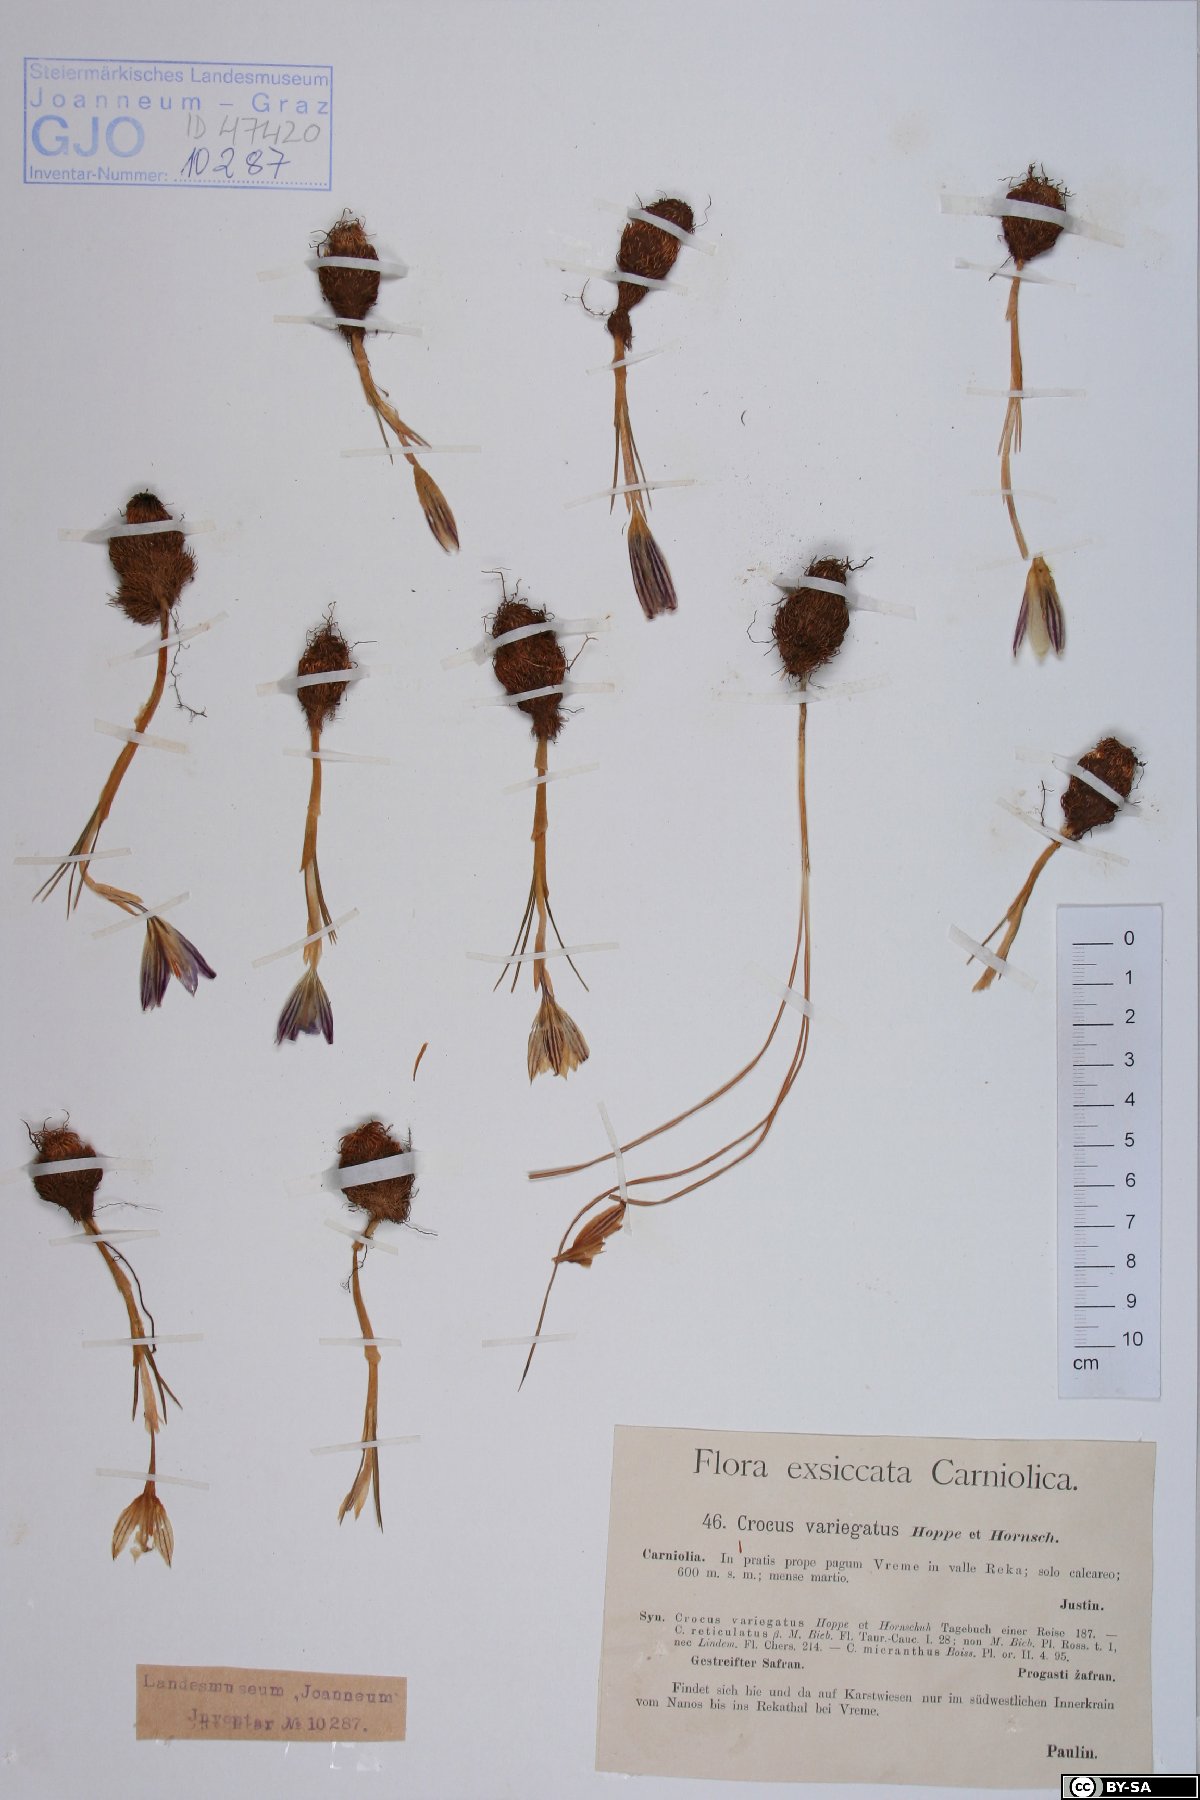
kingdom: Plantae
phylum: Tracheophyta
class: Liliopsida
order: Asparagales
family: Iridaceae
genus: Crocus
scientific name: Crocus variegatus
